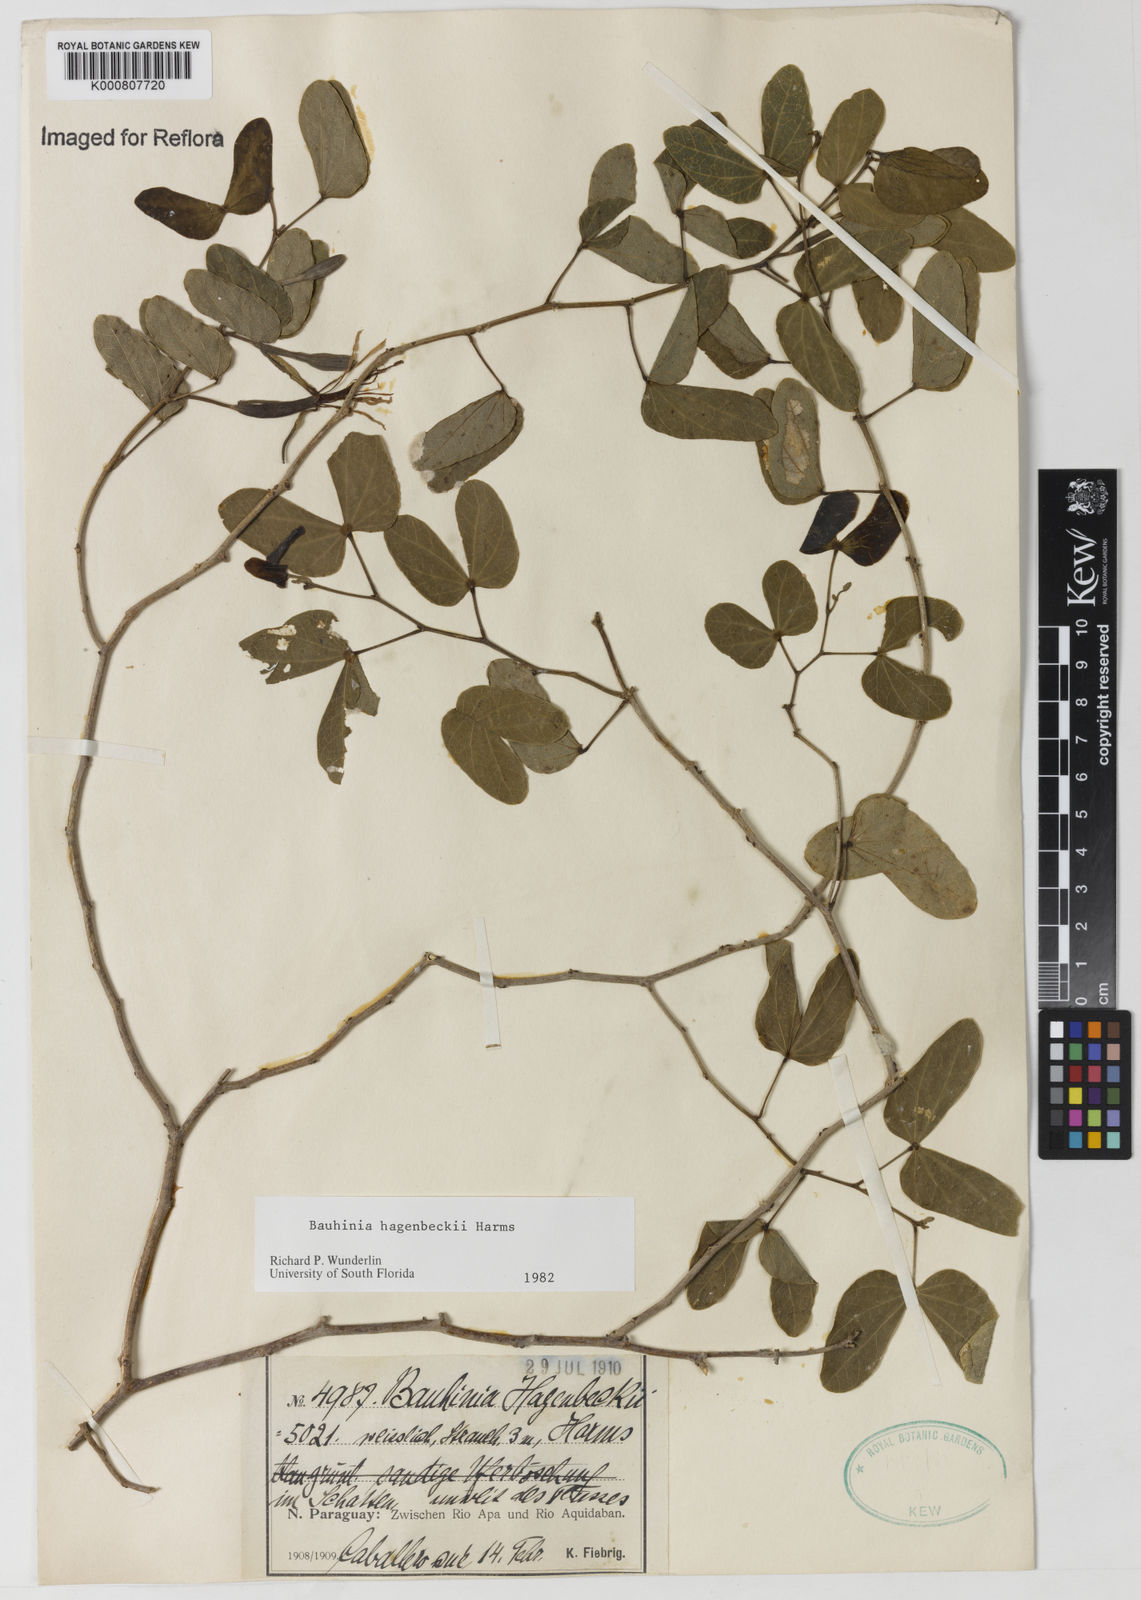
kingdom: Plantae
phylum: Tracheophyta
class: Magnoliopsida
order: Fabales
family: Fabaceae
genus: Bauhinia
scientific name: Bauhinia hagenbeckii
